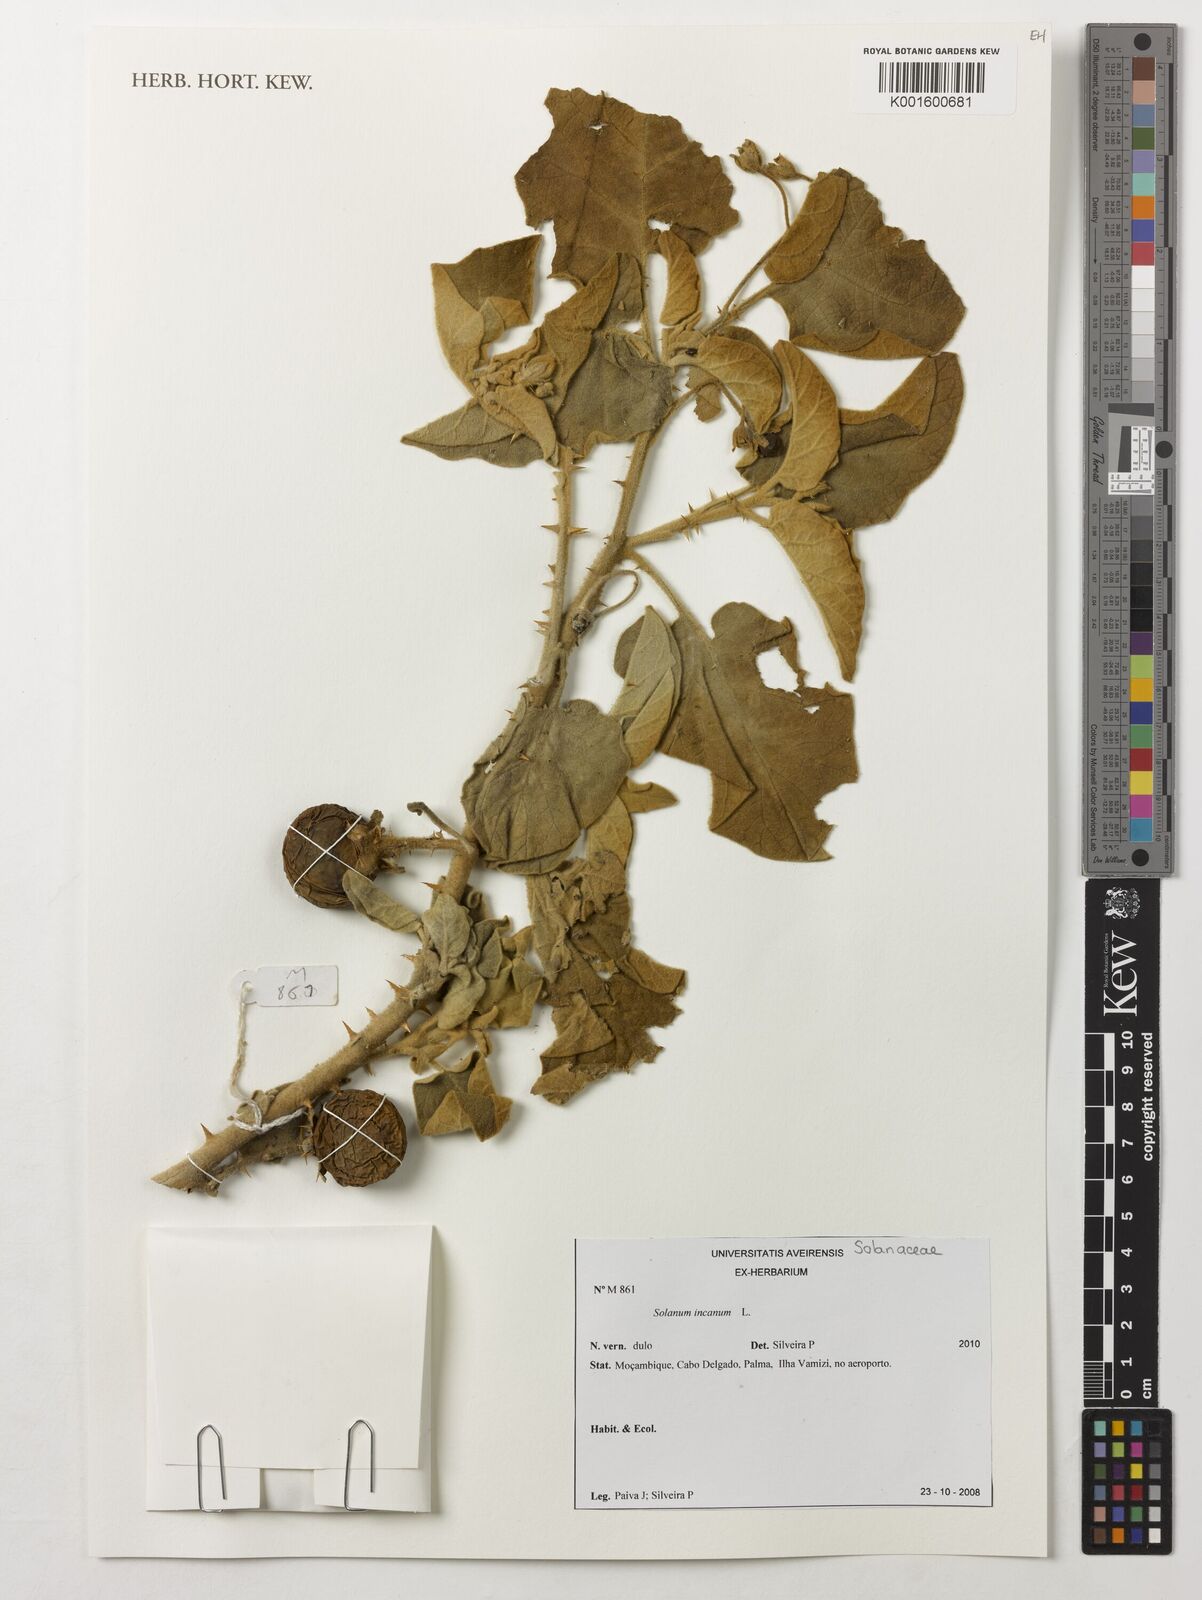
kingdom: Plantae
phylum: Tracheophyta
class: Magnoliopsida
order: Solanales
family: Solanaceae
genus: Solanum
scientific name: Solanum incanum
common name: Bitter apple
